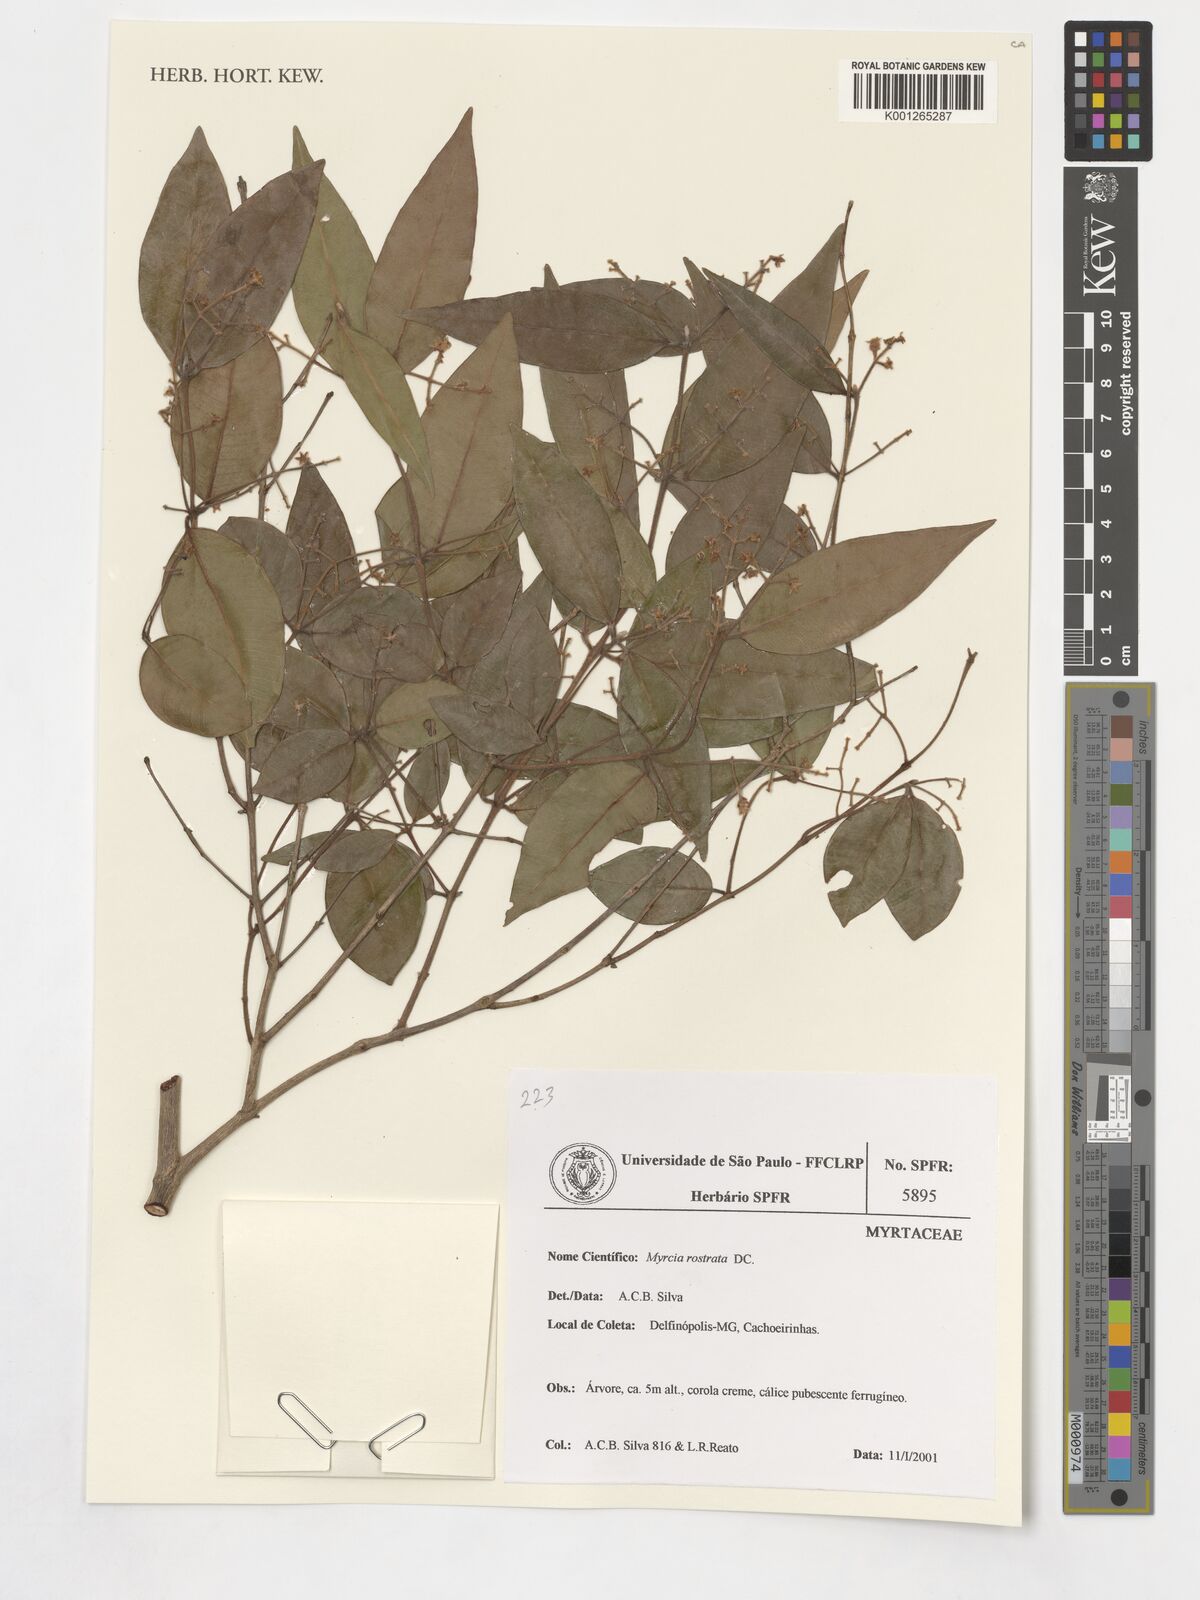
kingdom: Plantae
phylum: Tracheophyta
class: Magnoliopsida
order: Myrtales
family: Myrtaceae
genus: Myrcia
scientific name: Myrcia splendens
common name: Surinam cherry
